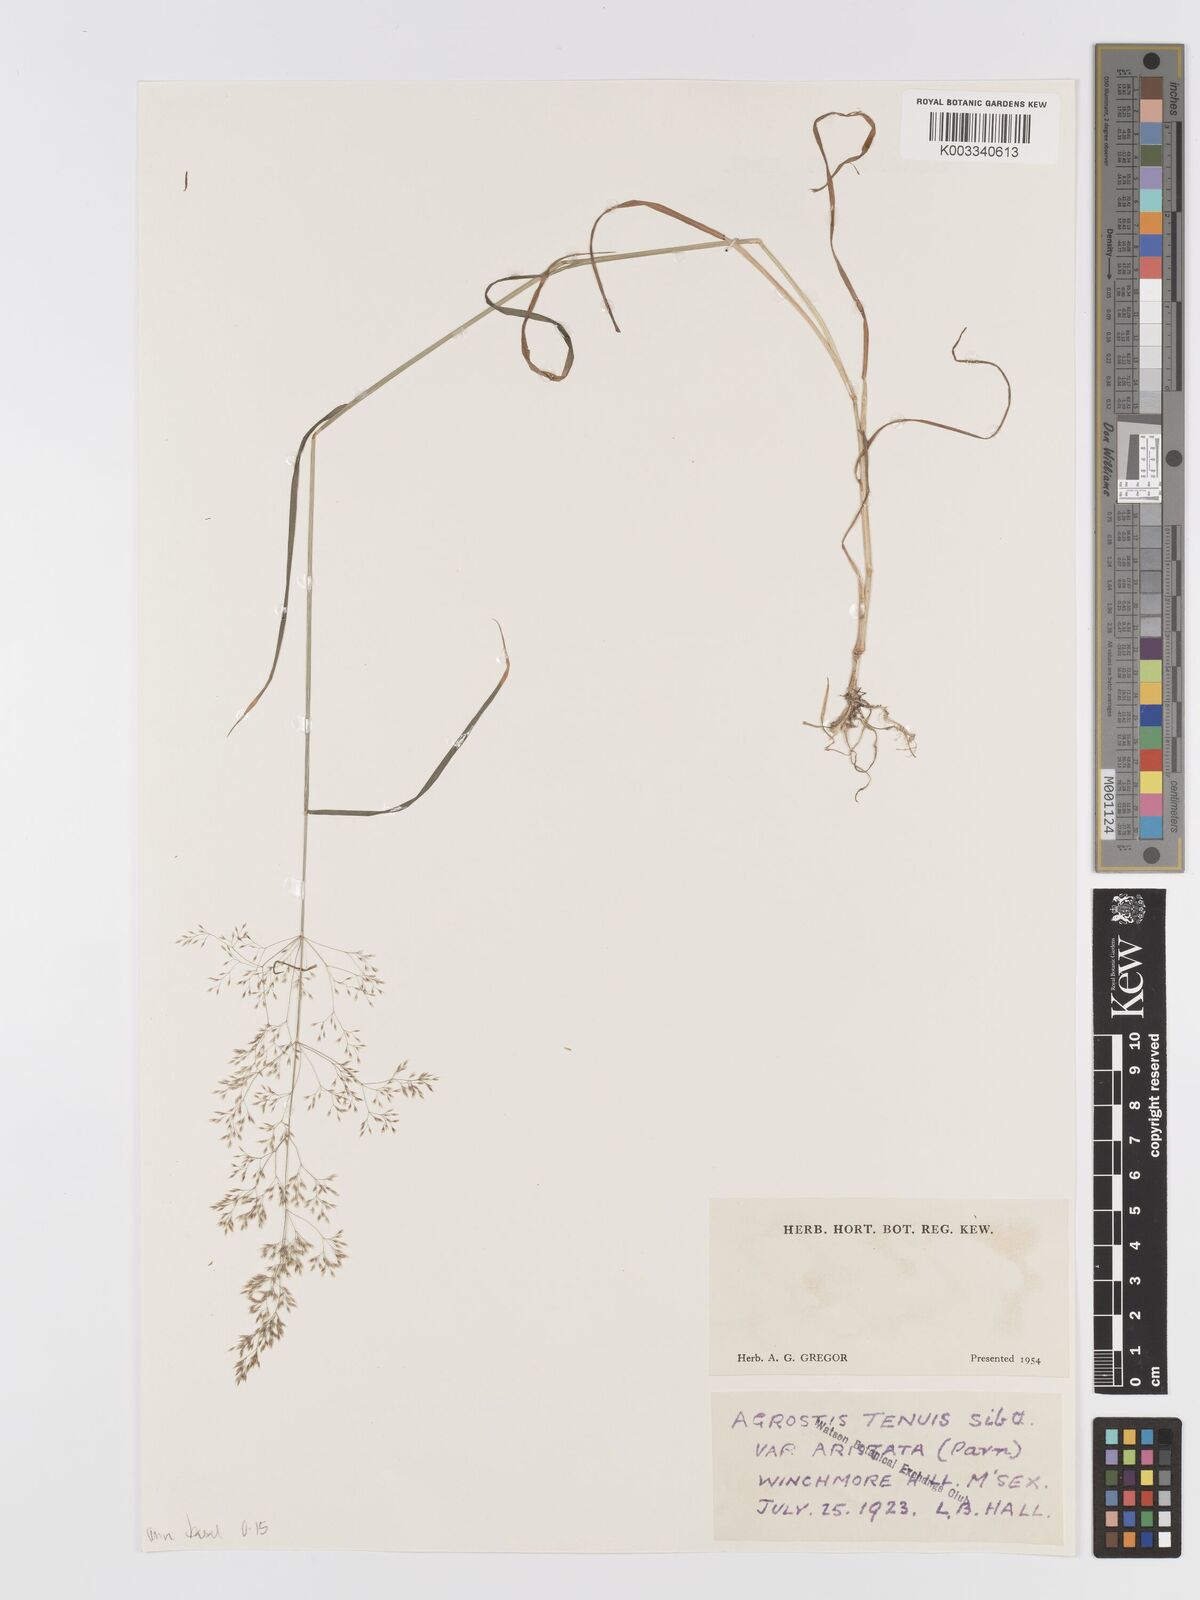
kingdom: Plantae
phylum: Tracheophyta
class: Liliopsida
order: Poales
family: Poaceae
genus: Agrostis
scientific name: Agrostis capillaris
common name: Colonial bentgrass
